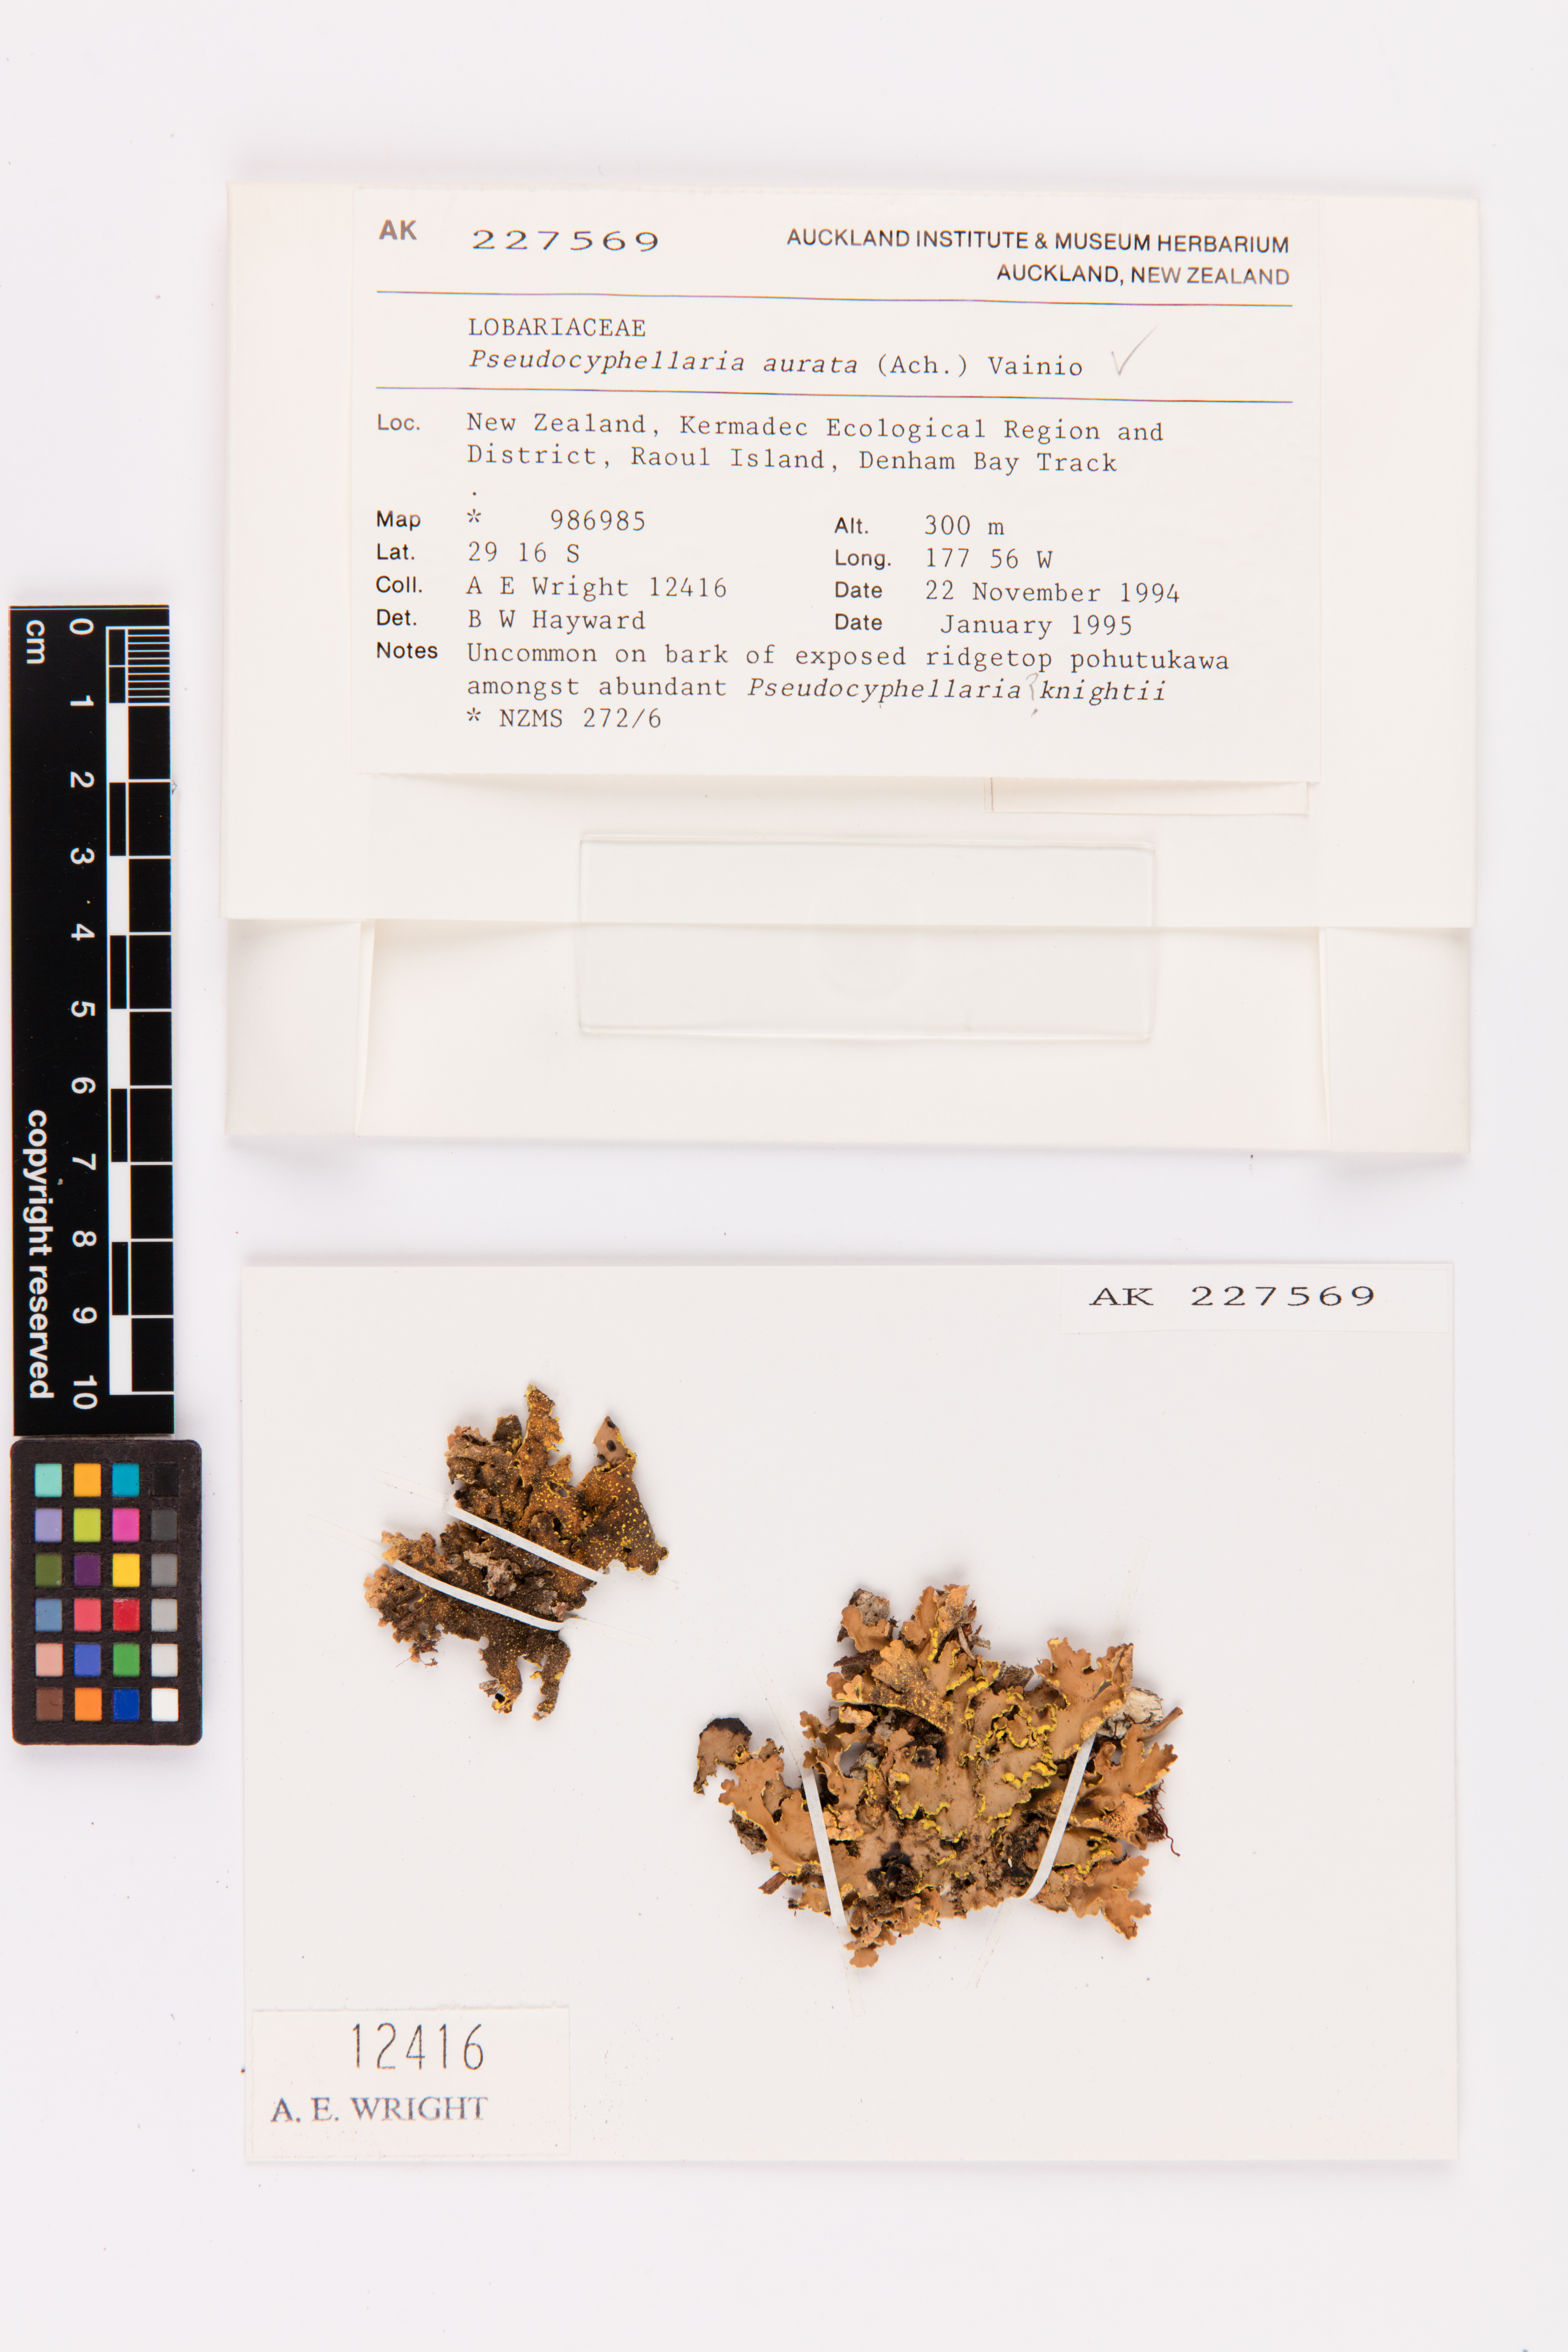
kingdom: Fungi
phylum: Ascomycota
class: Lecanoromycetes
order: Peltigerales
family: Lobariaceae
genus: Pseudocyphellaria
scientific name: Pseudocyphellaria aurata
